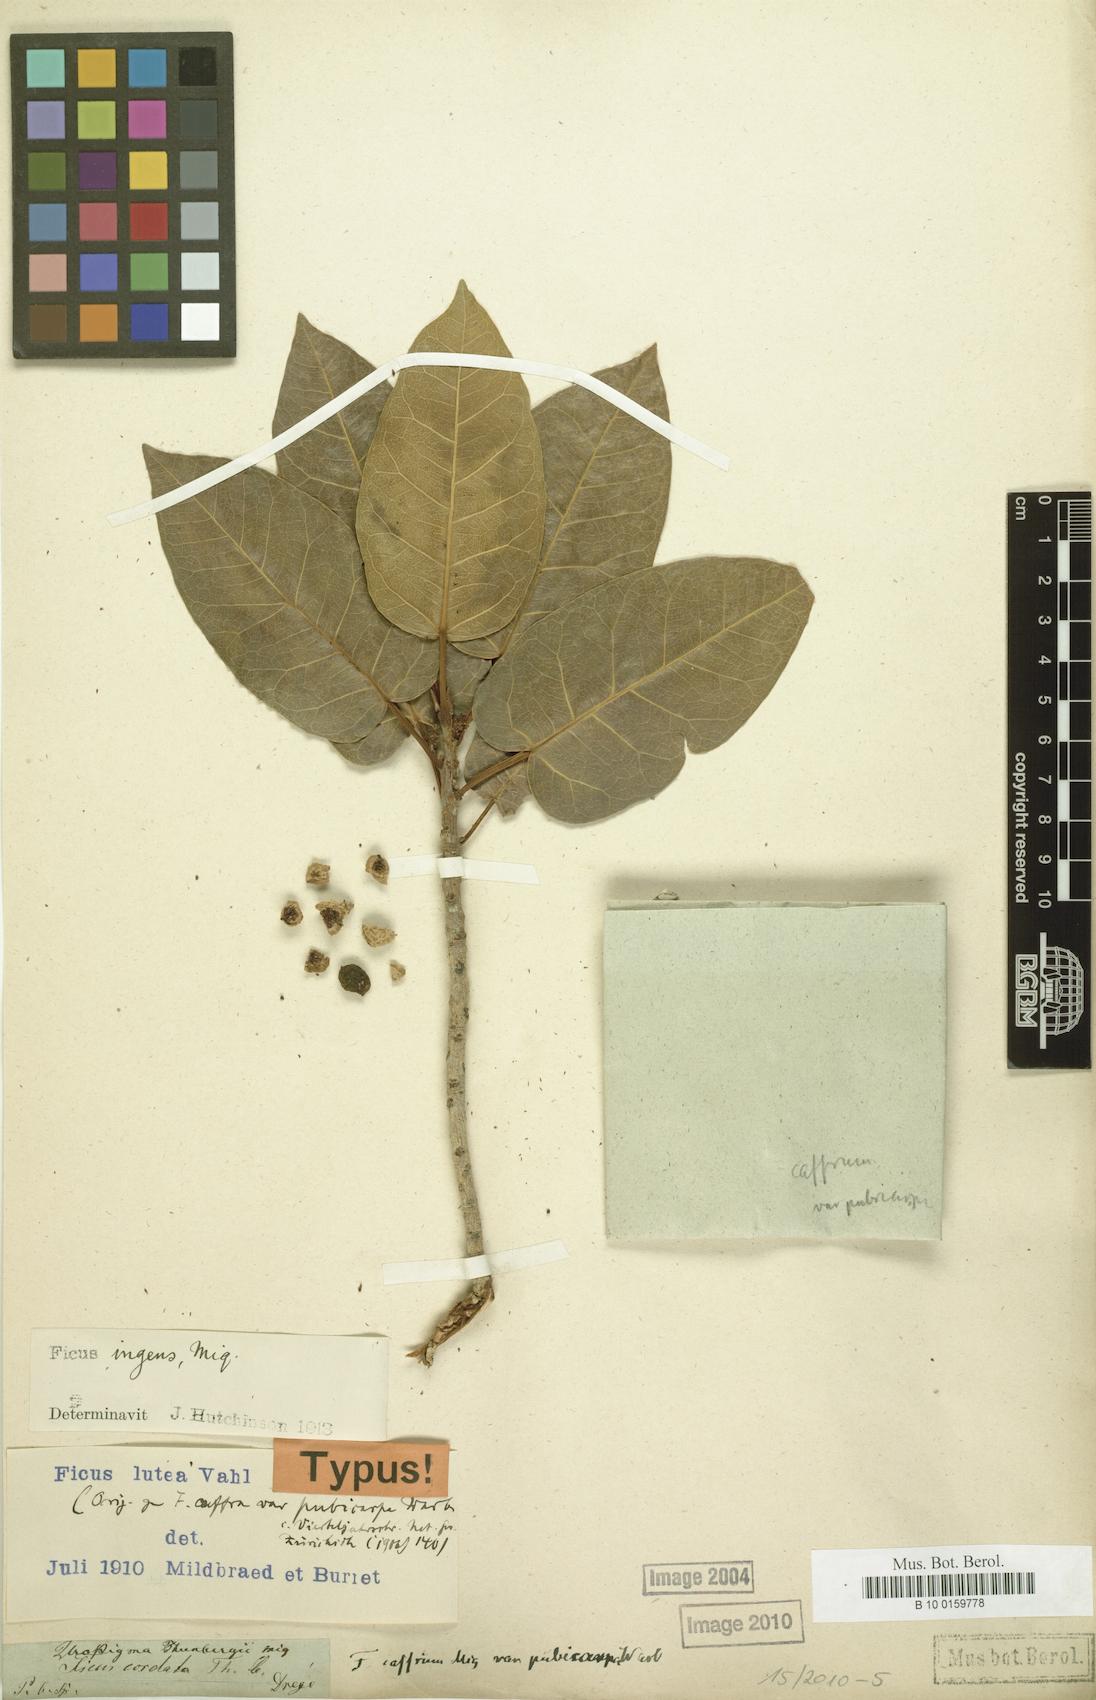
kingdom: Plantae
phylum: Tracheophyta
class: Magnoliopsida
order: Rosales
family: Moraceae
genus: Ficus
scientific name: Ficus ingens
